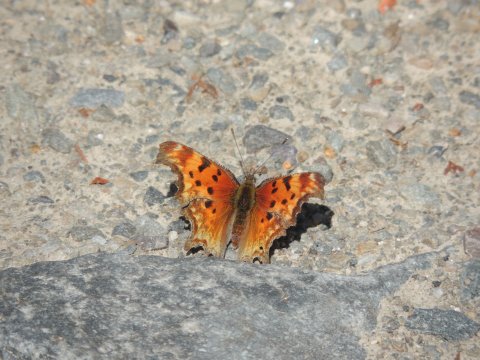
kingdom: Animalia
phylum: Arthropoda
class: Insecta
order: Lepidoptera
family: Nymphalidae
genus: Polygonia
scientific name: Polygonia gracilis
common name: Hoary Comma
